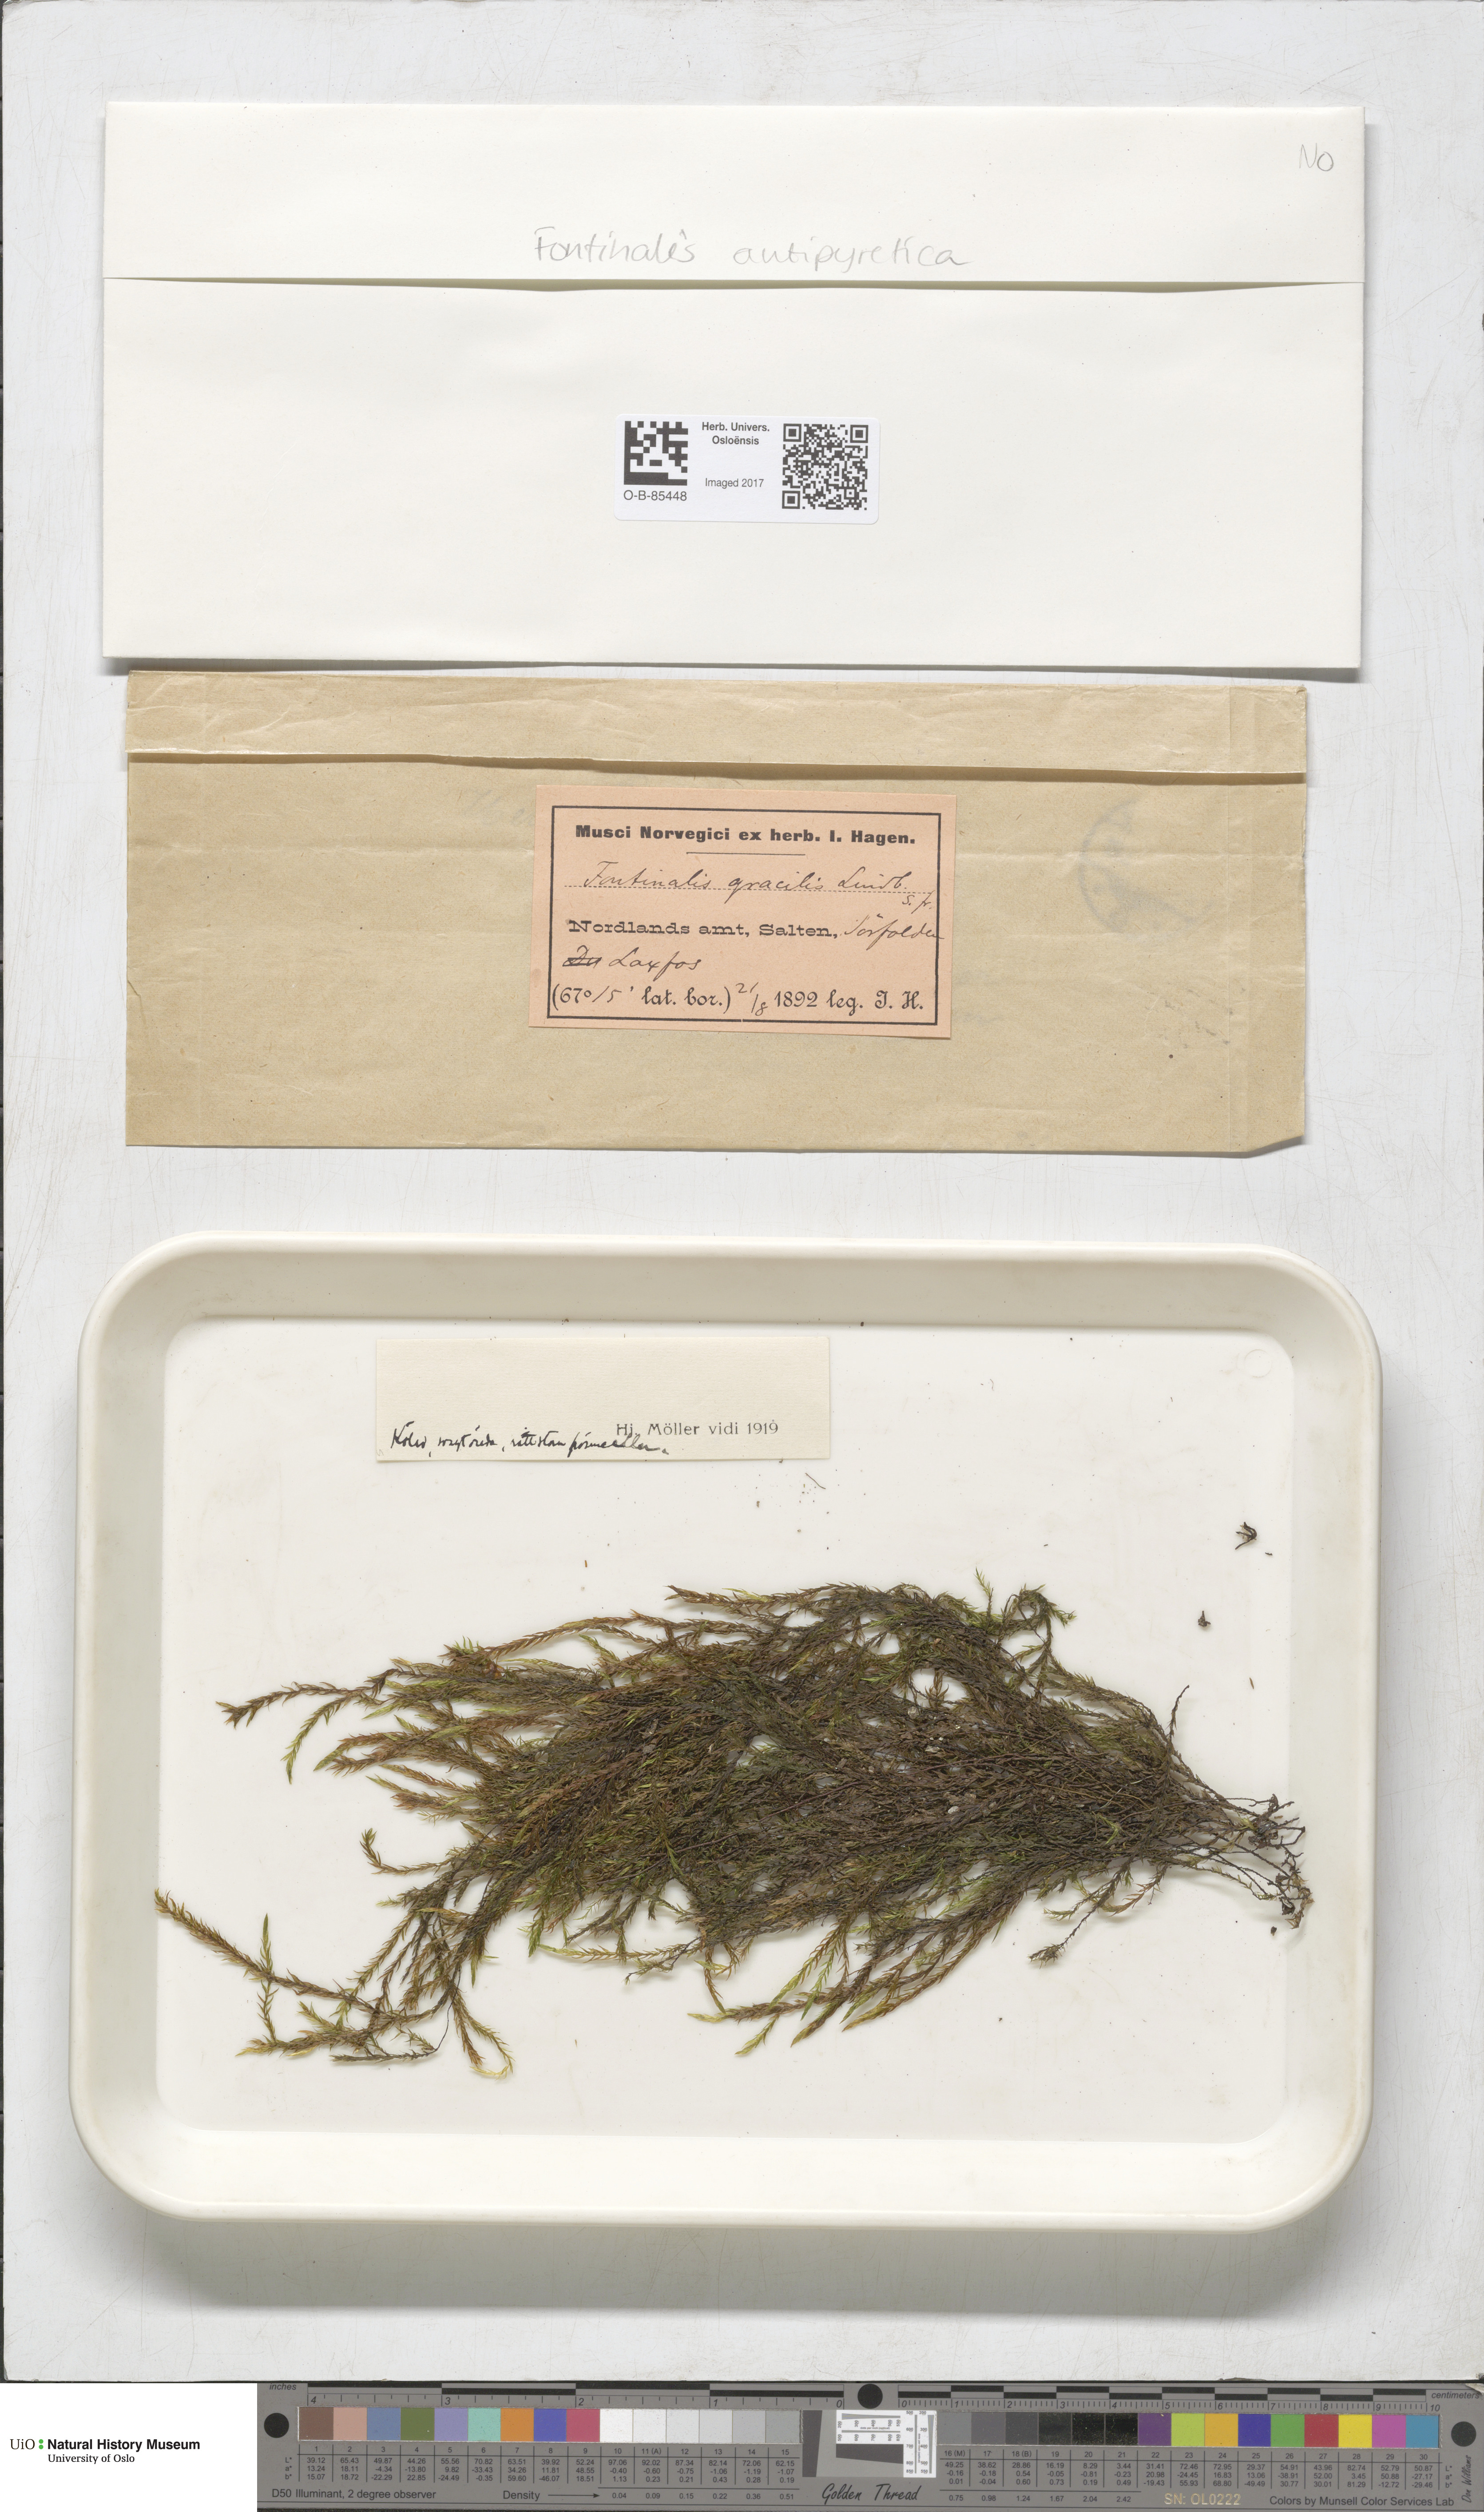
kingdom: Plantae
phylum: Bryophyta
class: Bryopsida
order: Hypnales
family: Fontinalaceae
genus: Fontinalis
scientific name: Fontinalis antipyretica
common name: Greater water-moss
